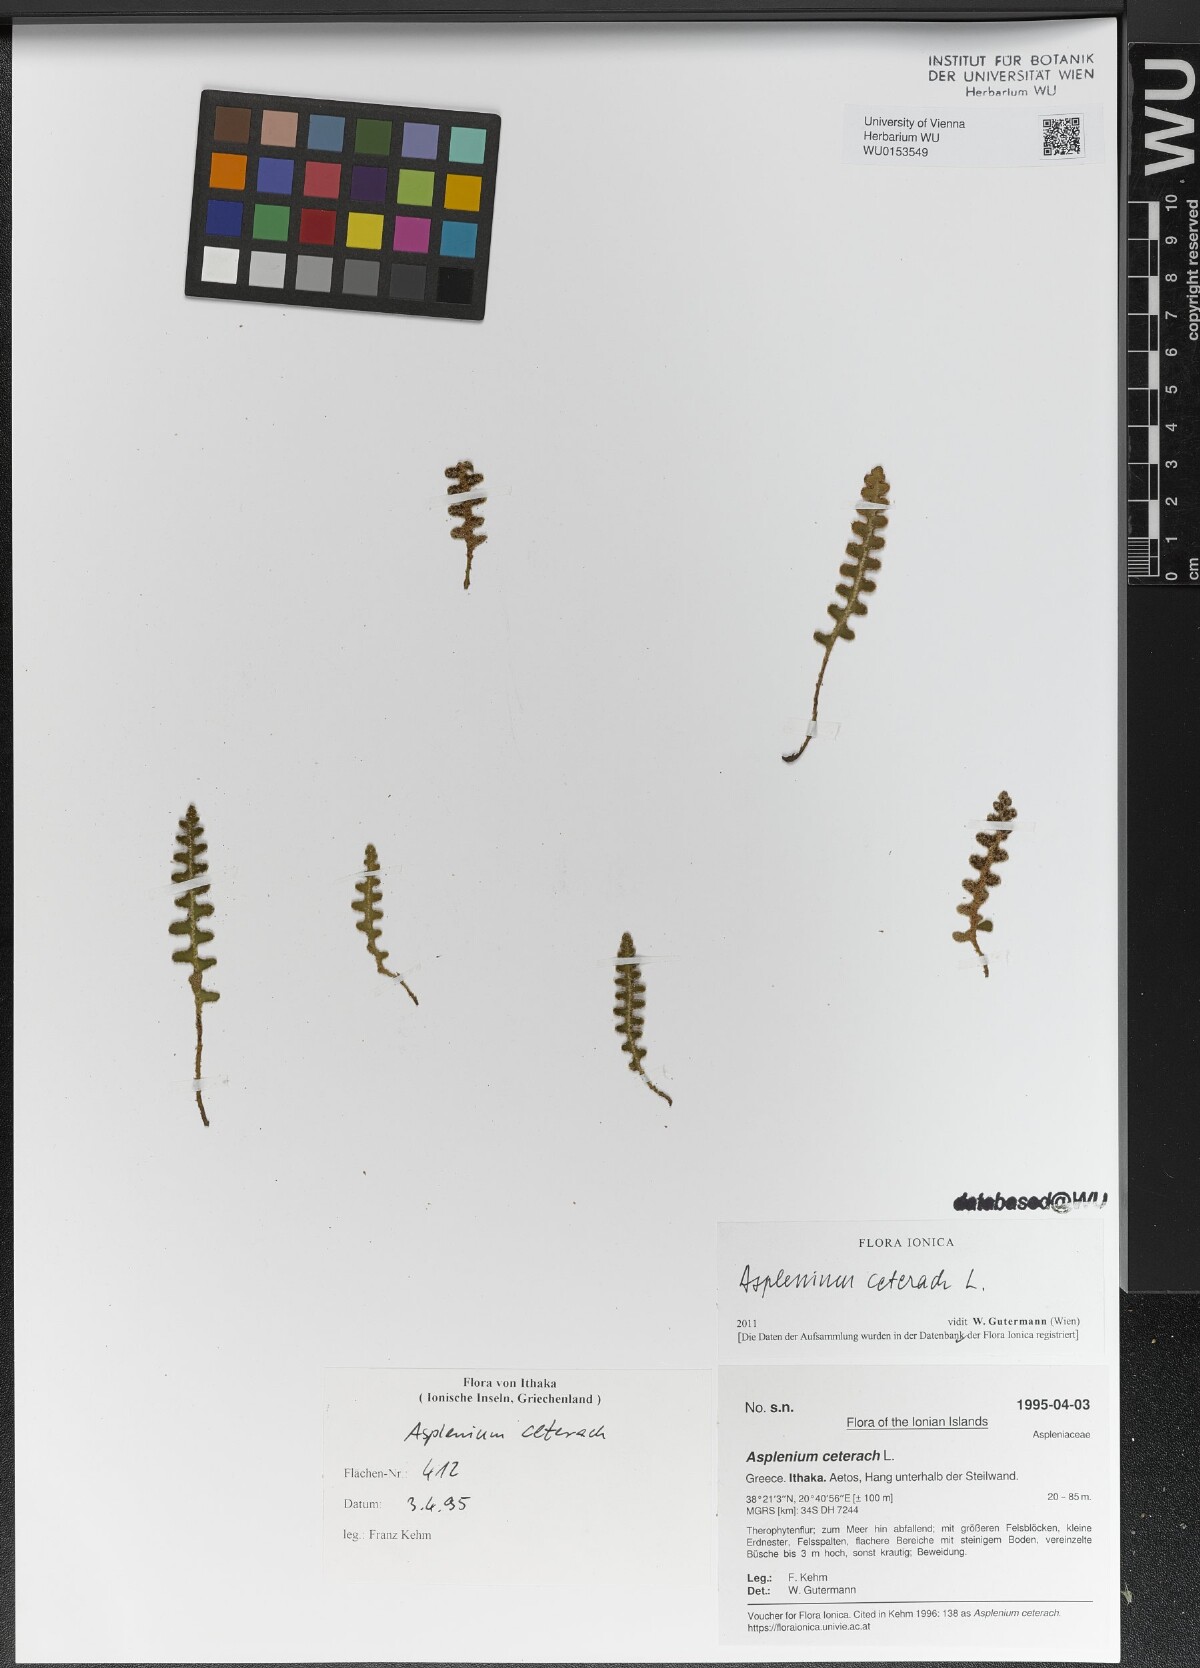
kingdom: Plantae
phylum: Tracheophyta
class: Polypodiopsida
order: Polypodiales
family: Aspleniaceae
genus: Asplenium
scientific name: Asplenium ceterach
